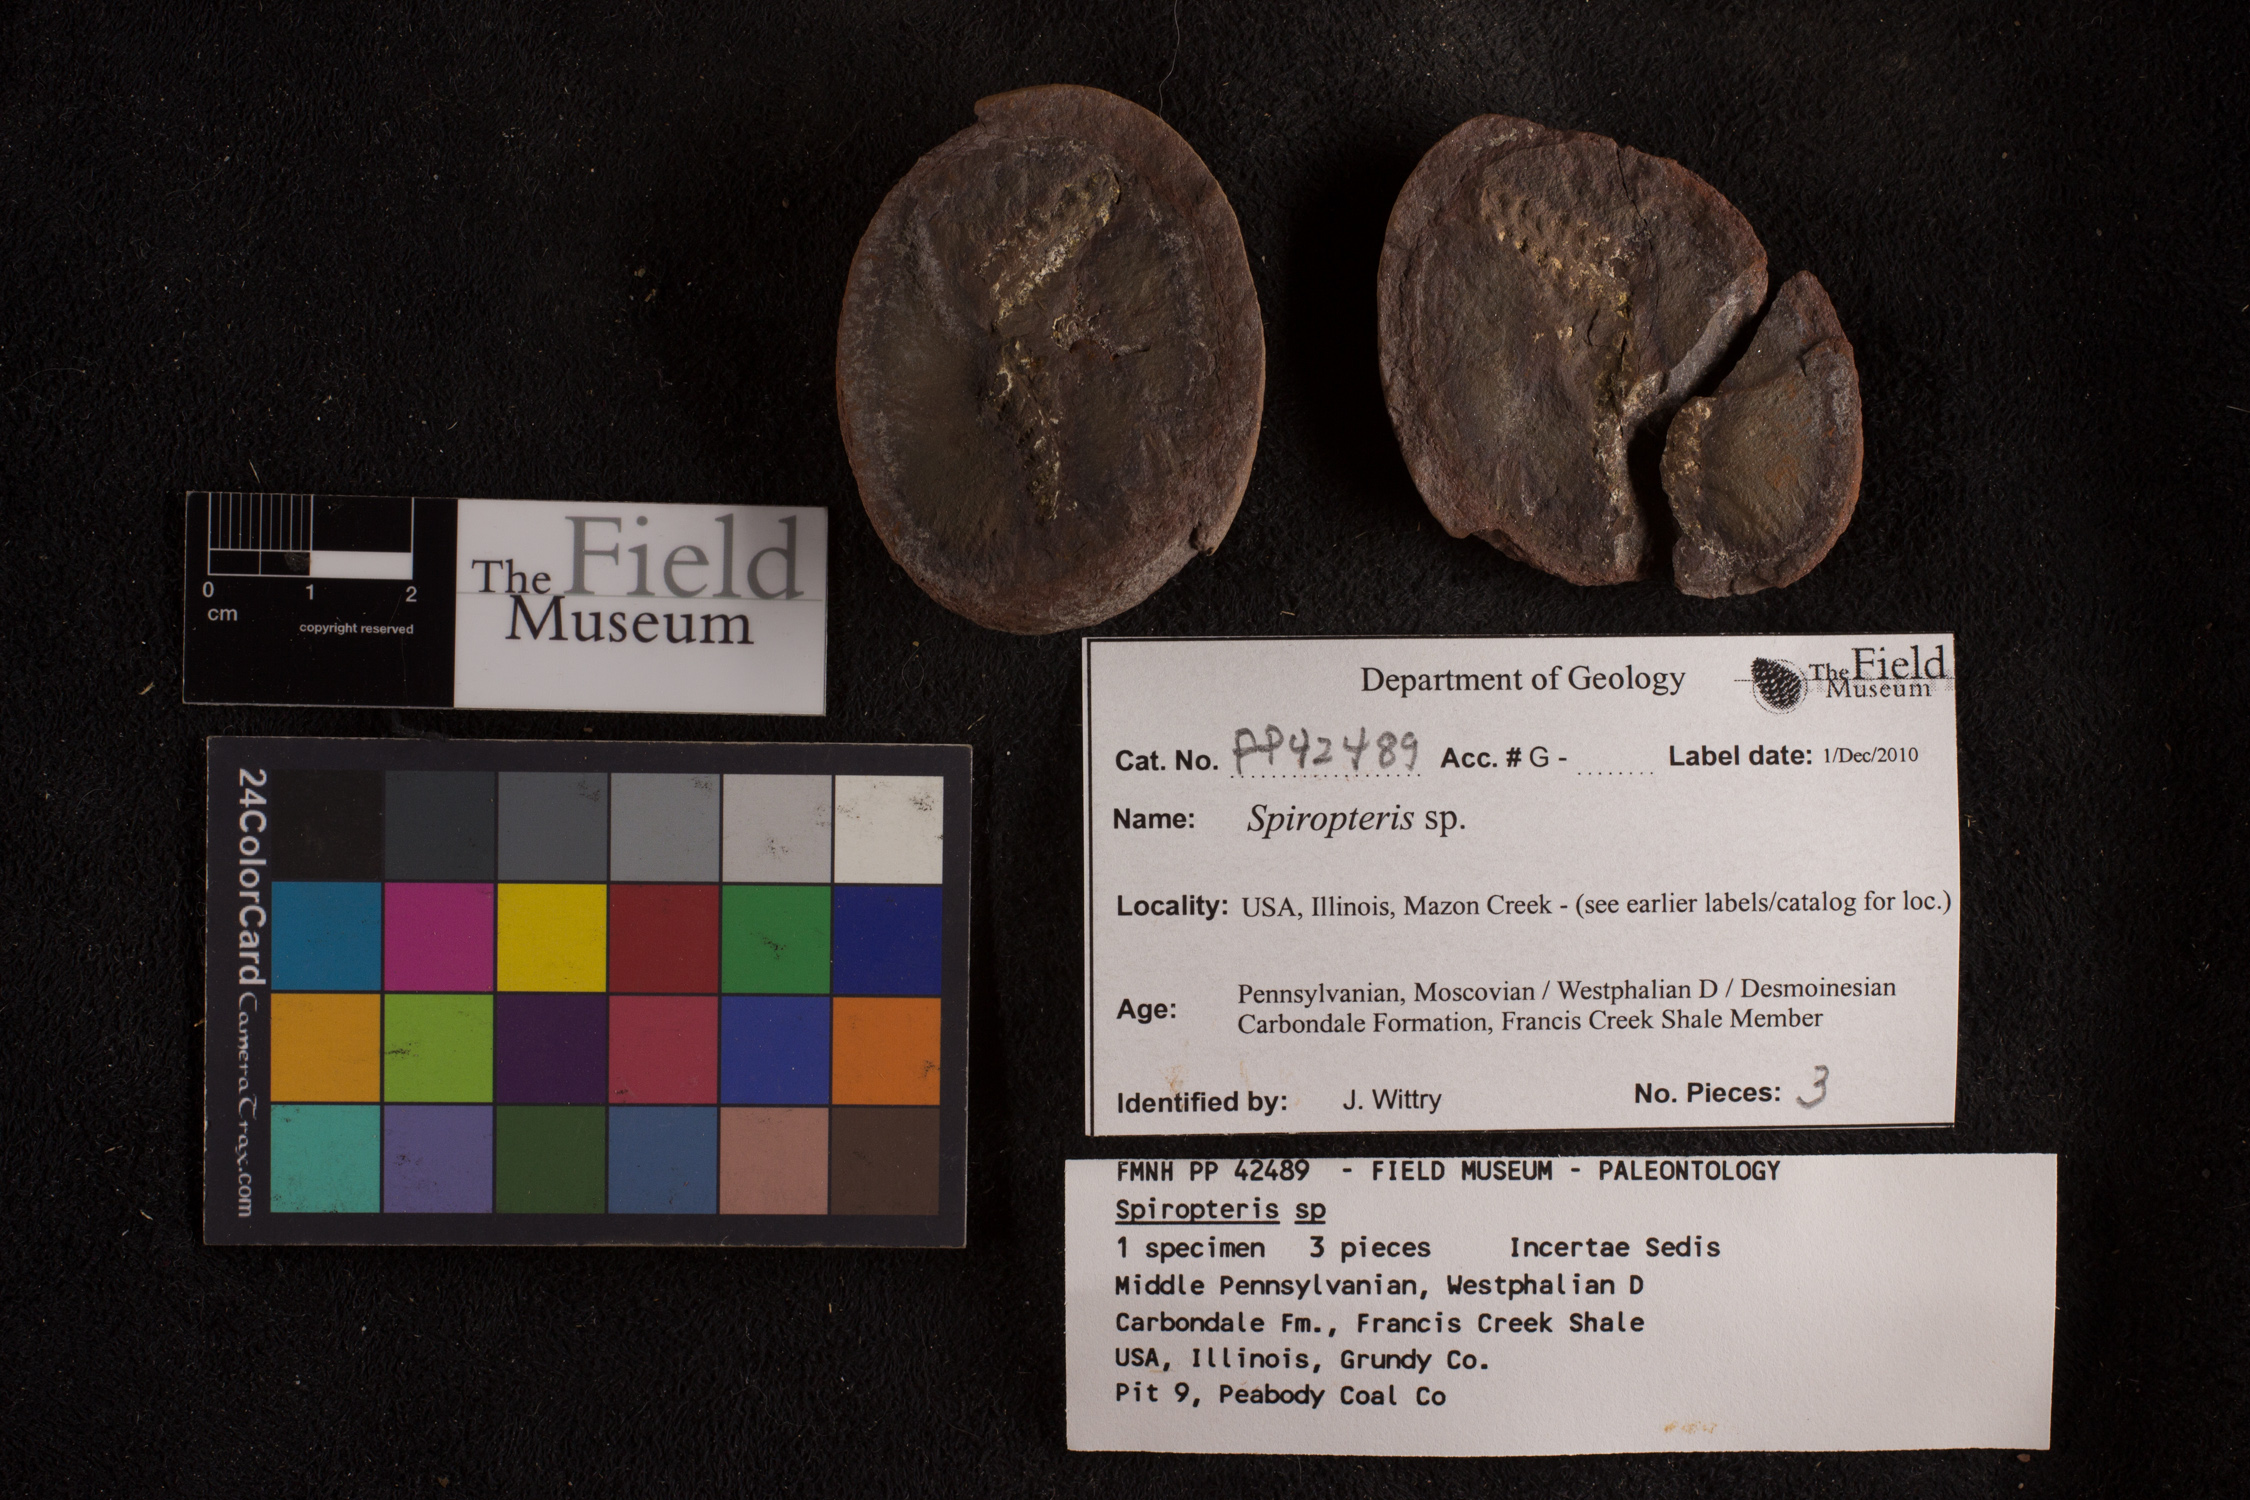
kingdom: Plantae
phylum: Tracheophyta
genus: Spiropteris
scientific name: Spiropteris
